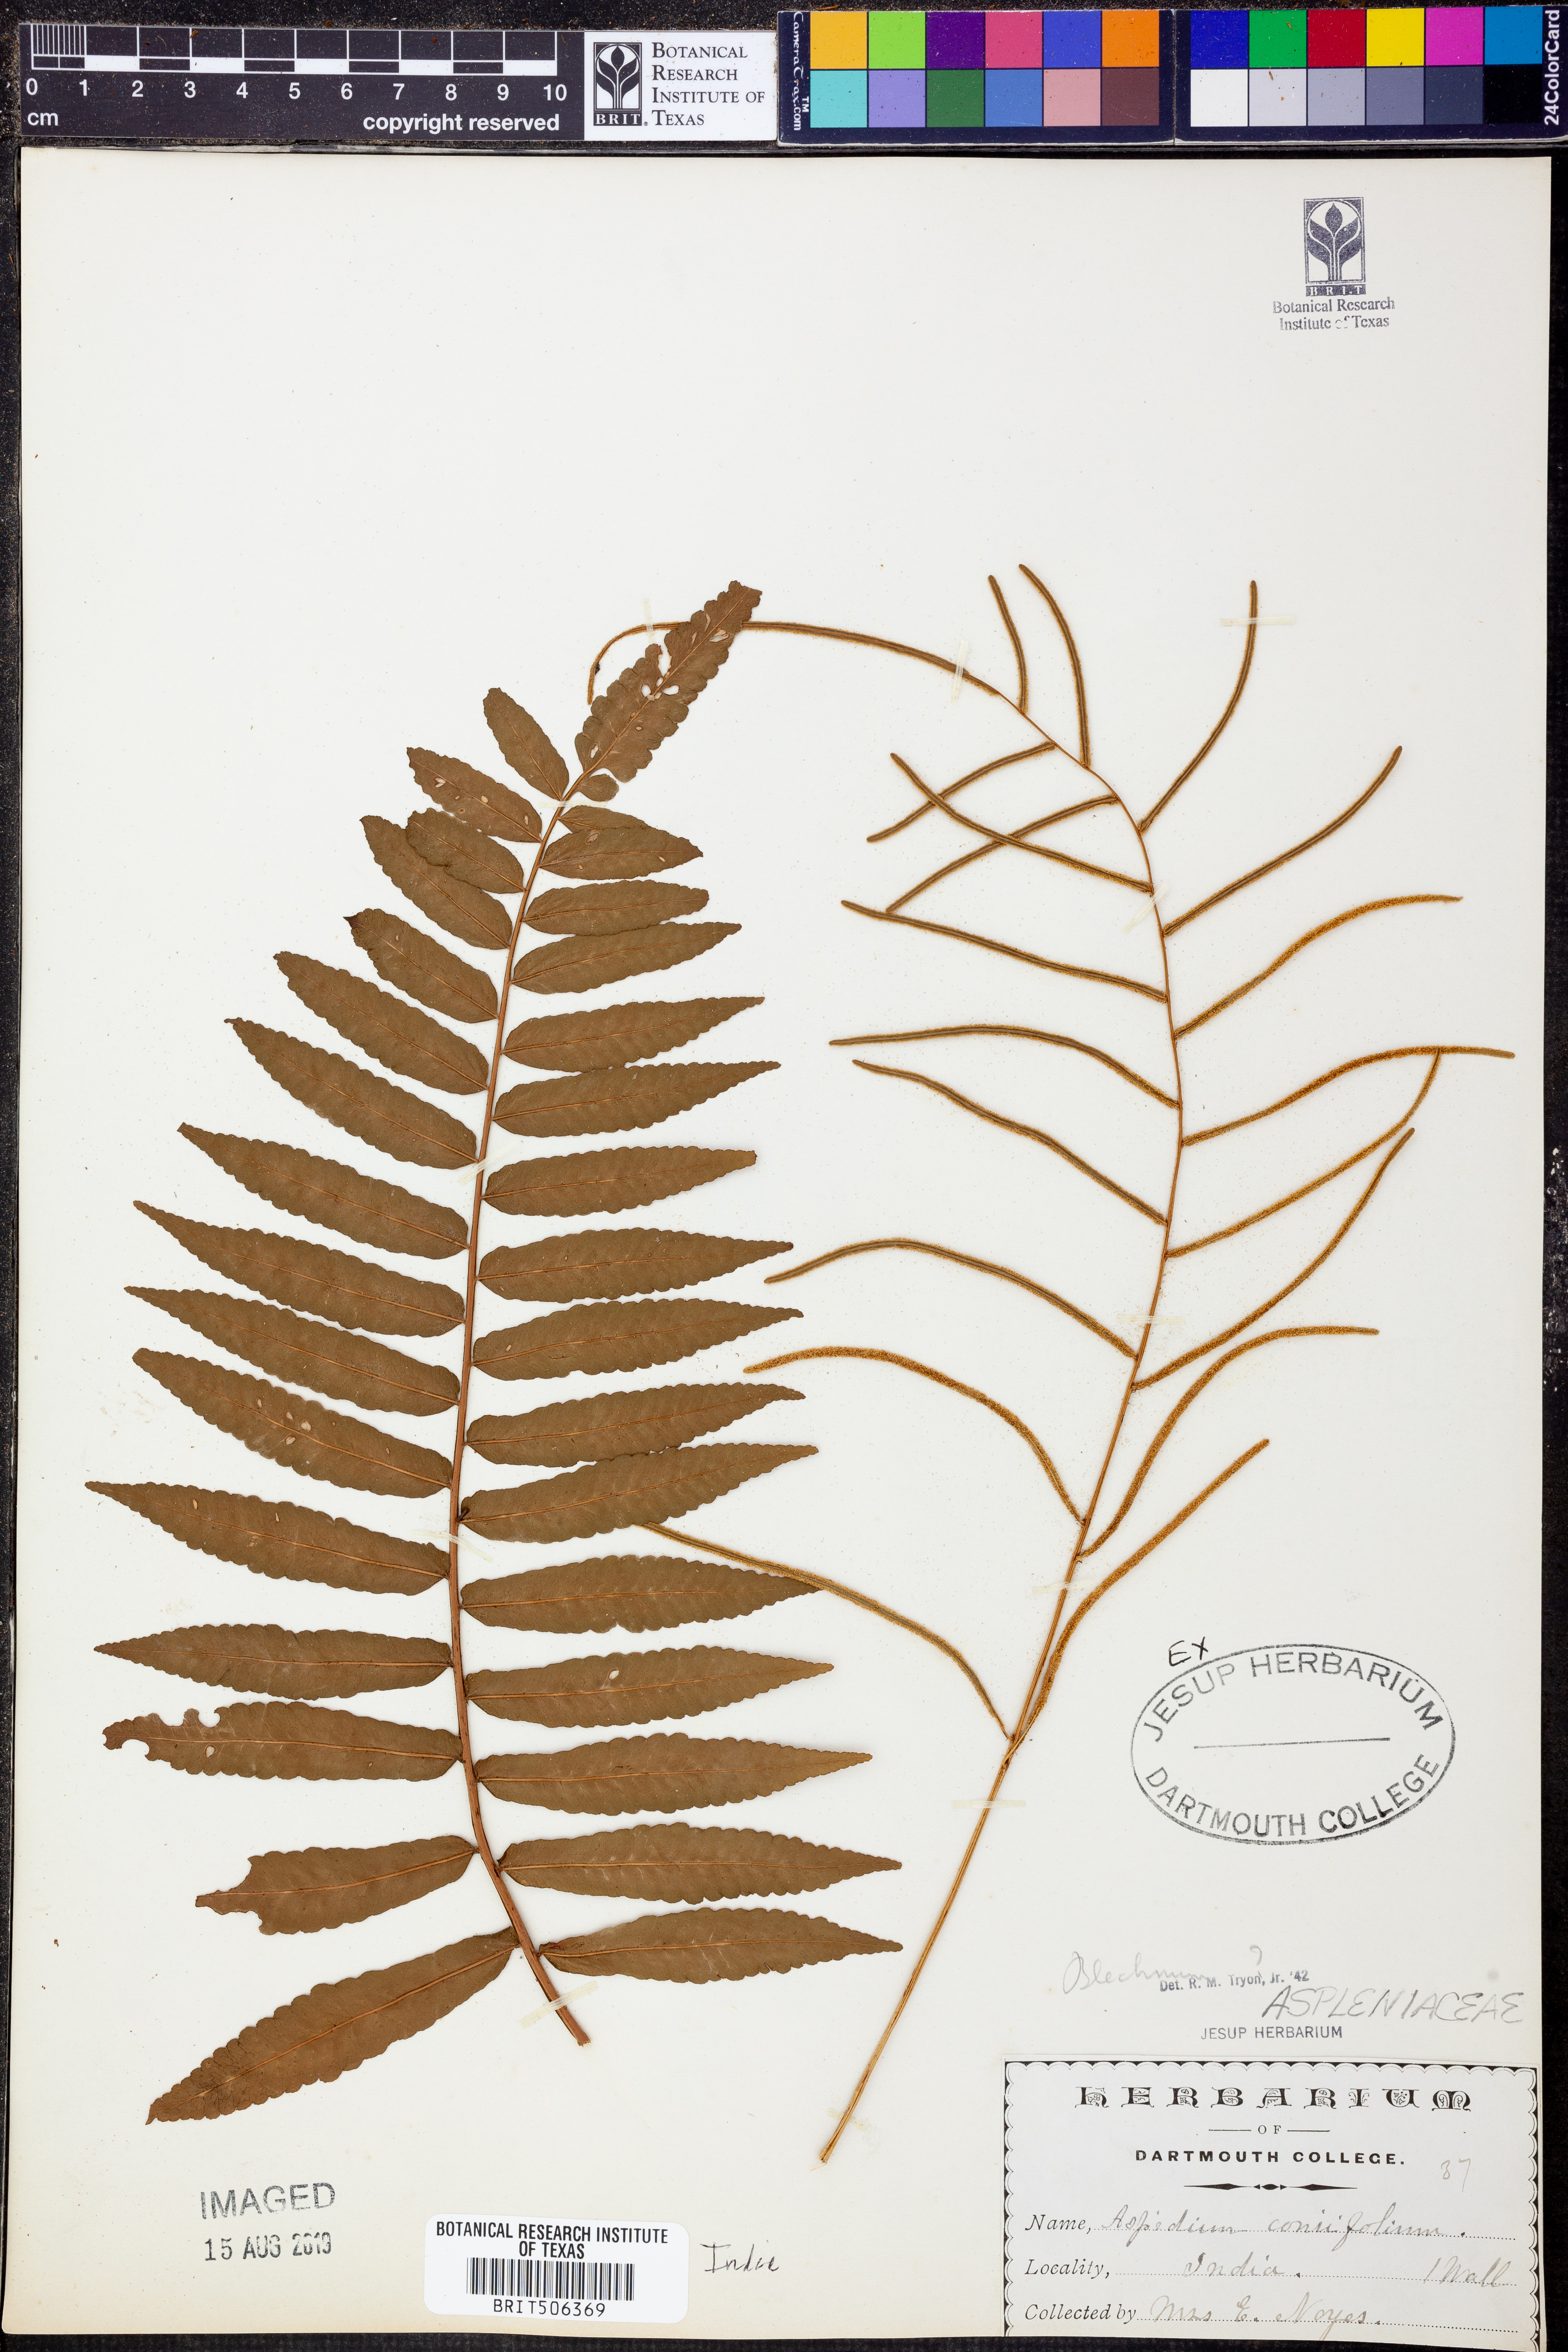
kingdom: Plantae
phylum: Tracheophyta
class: Polypodiopsida
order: Polypodiales
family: Blechnaceae
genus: Blechnum
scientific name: Blechnum
